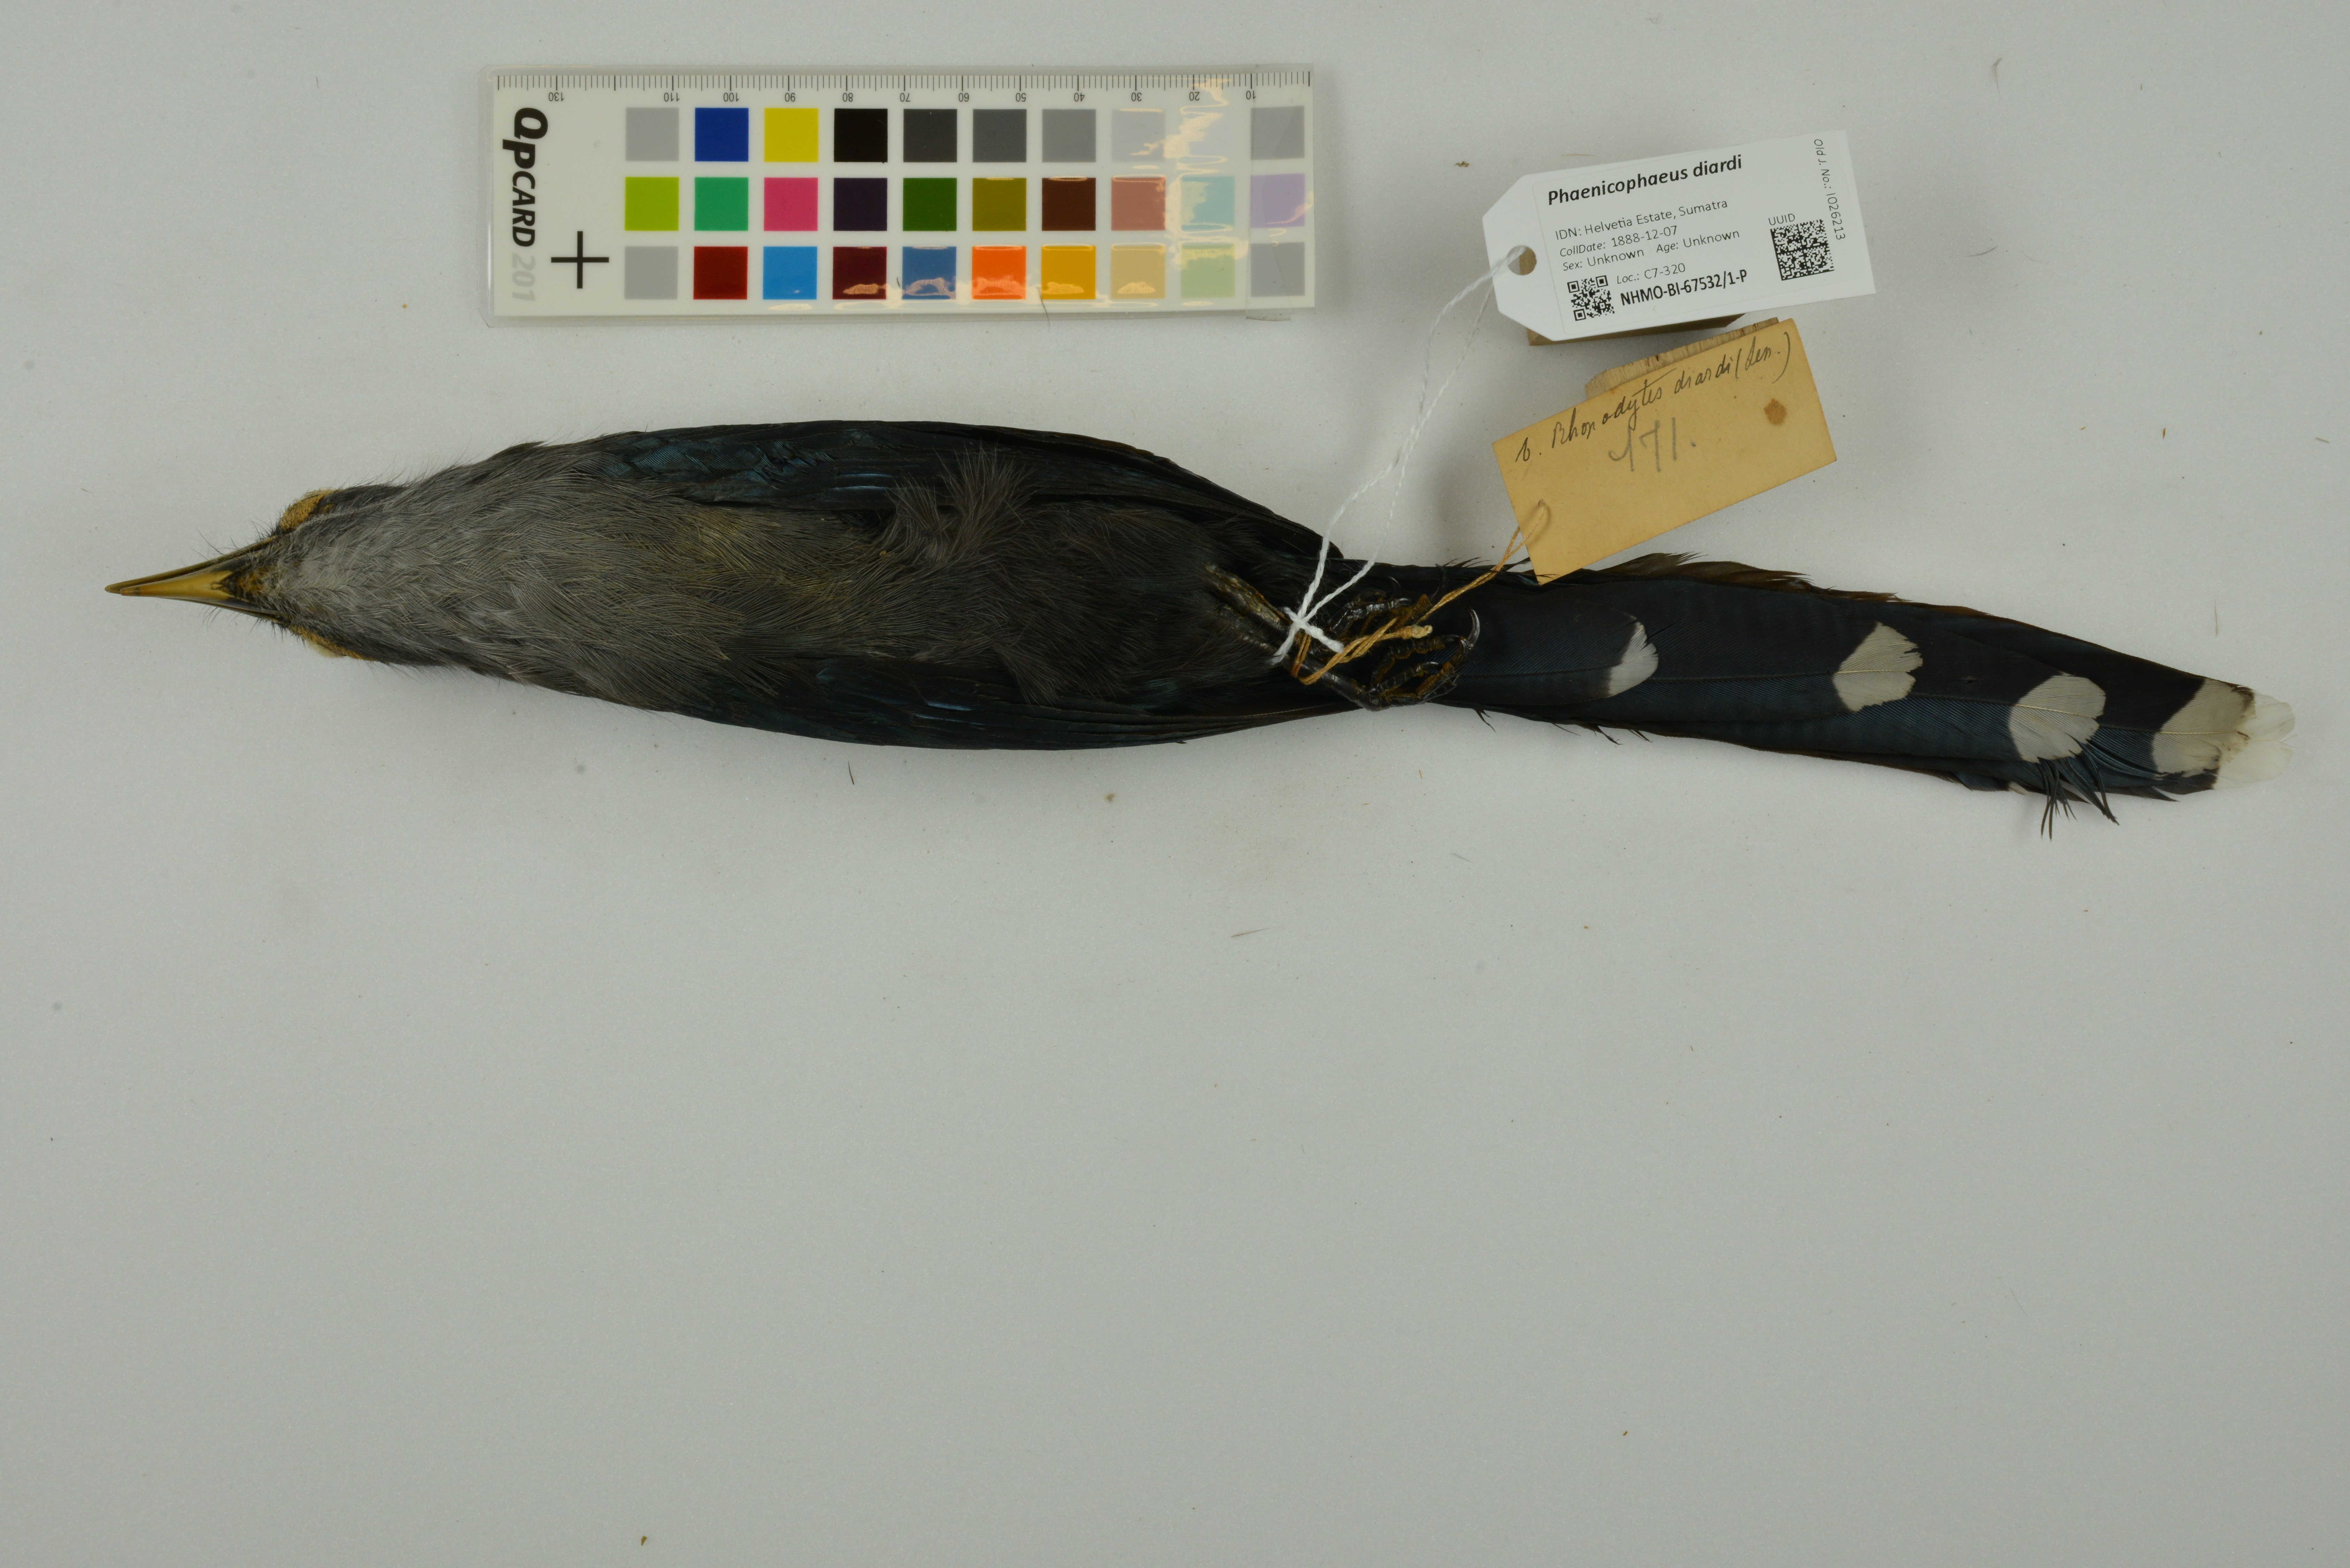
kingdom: Animalia
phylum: Chordata
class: Aves
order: Cuculiformes
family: Cuculidae
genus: Rhopodytes
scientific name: Rhopodytes diardi
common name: Lesser green-billed malcoha
